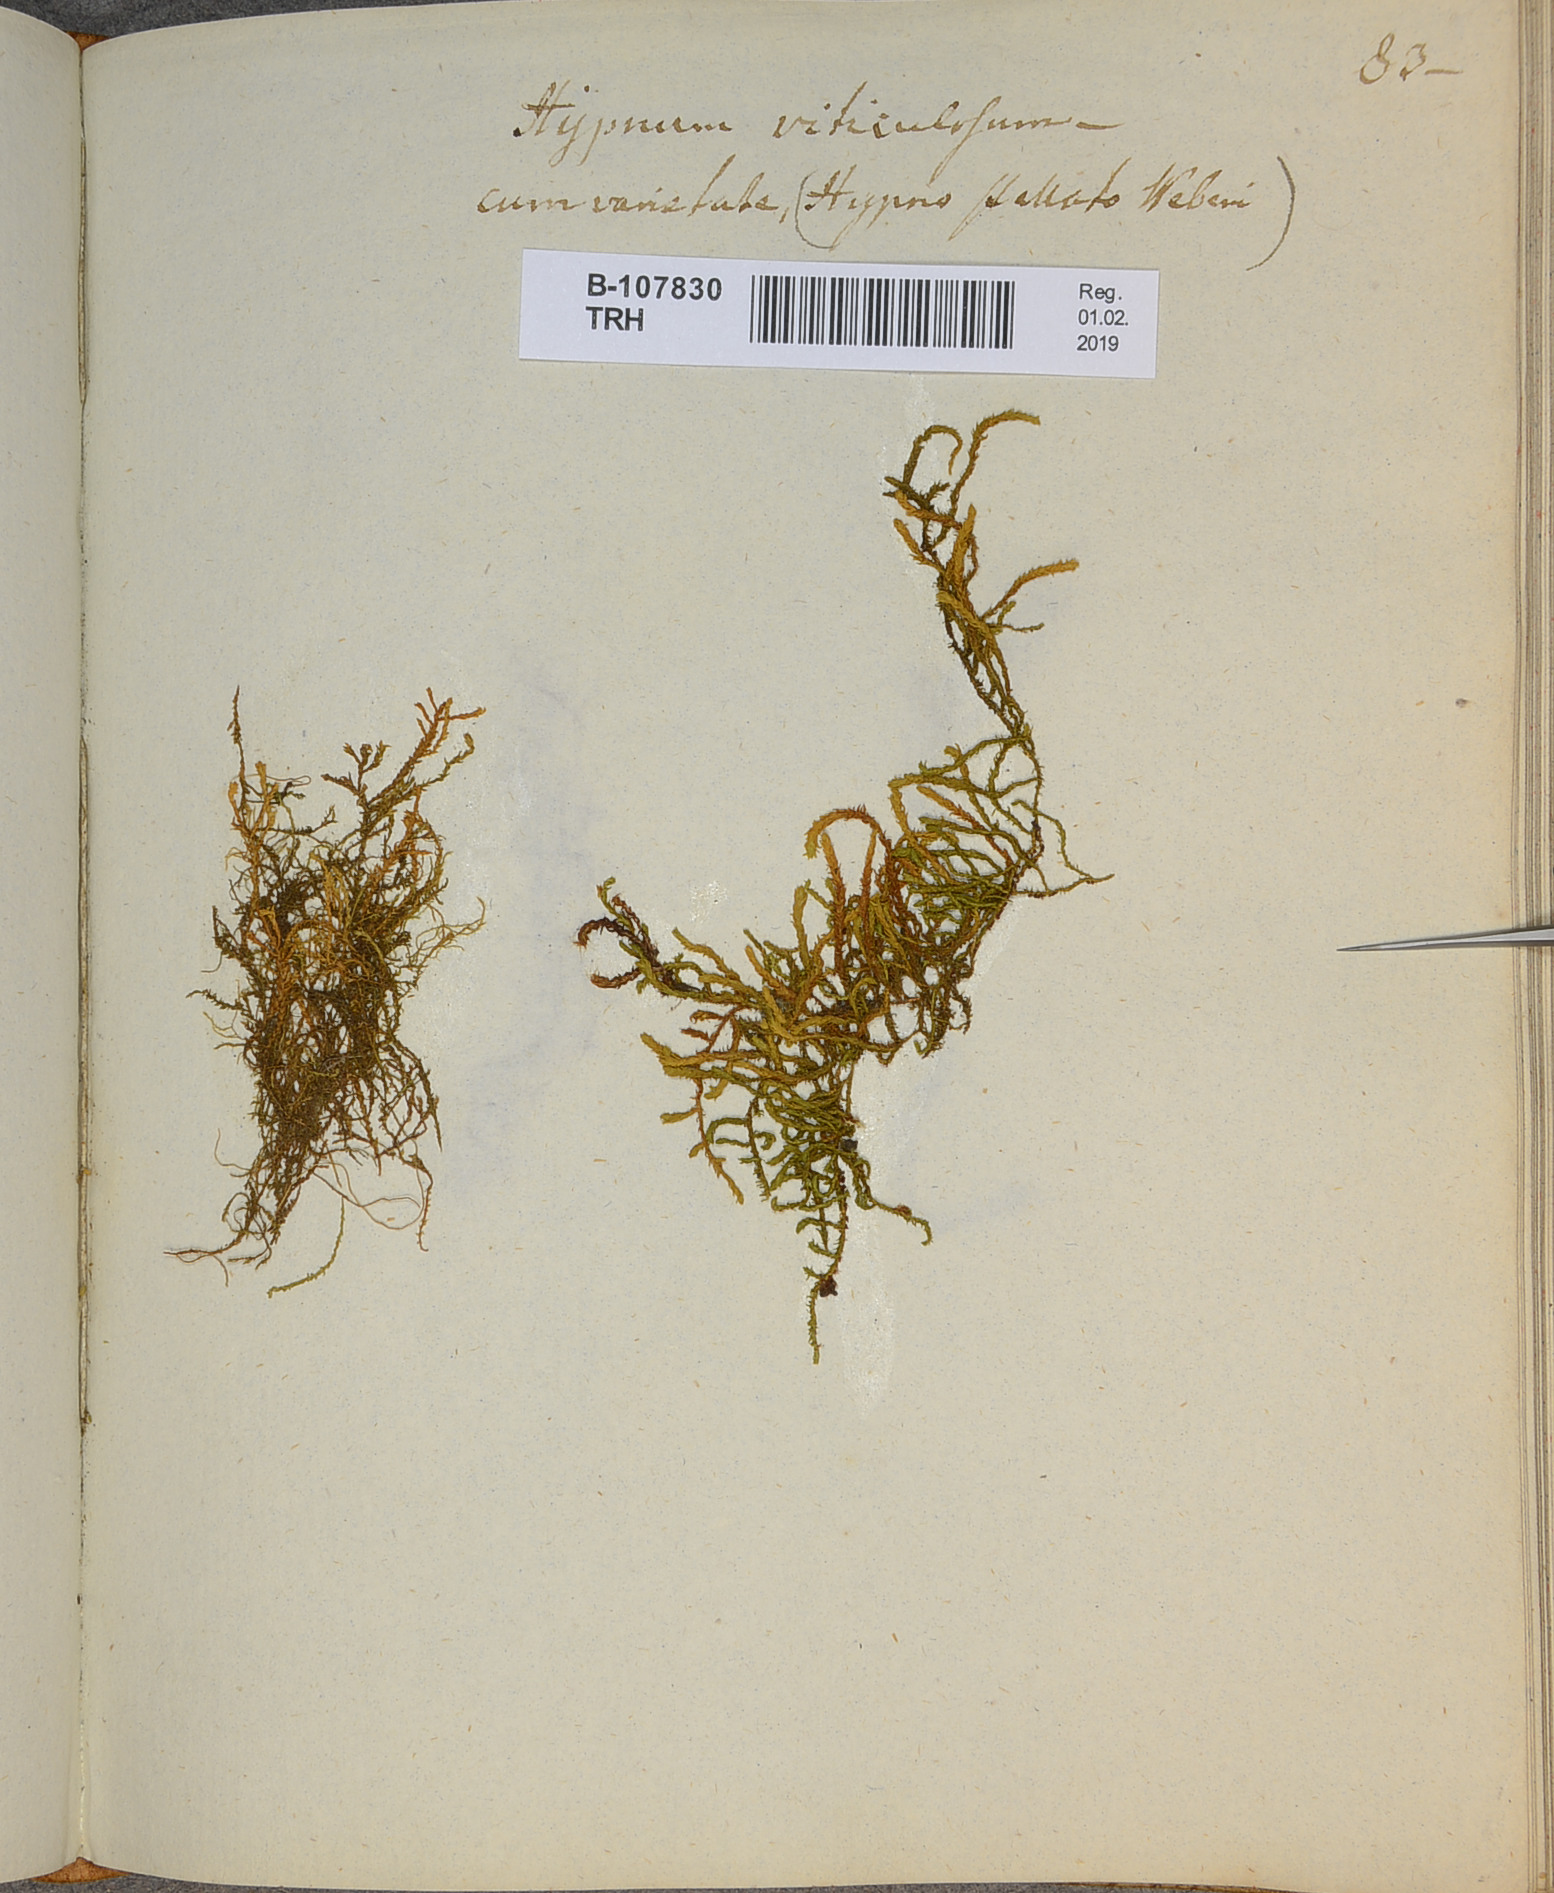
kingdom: Plantae
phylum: Bryophyta
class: Bryopsida
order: Hypnales
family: Neckeraceae
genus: Pseudanomodon
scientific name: Pseudanomodon attenuatus
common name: Tree-skirt moss
